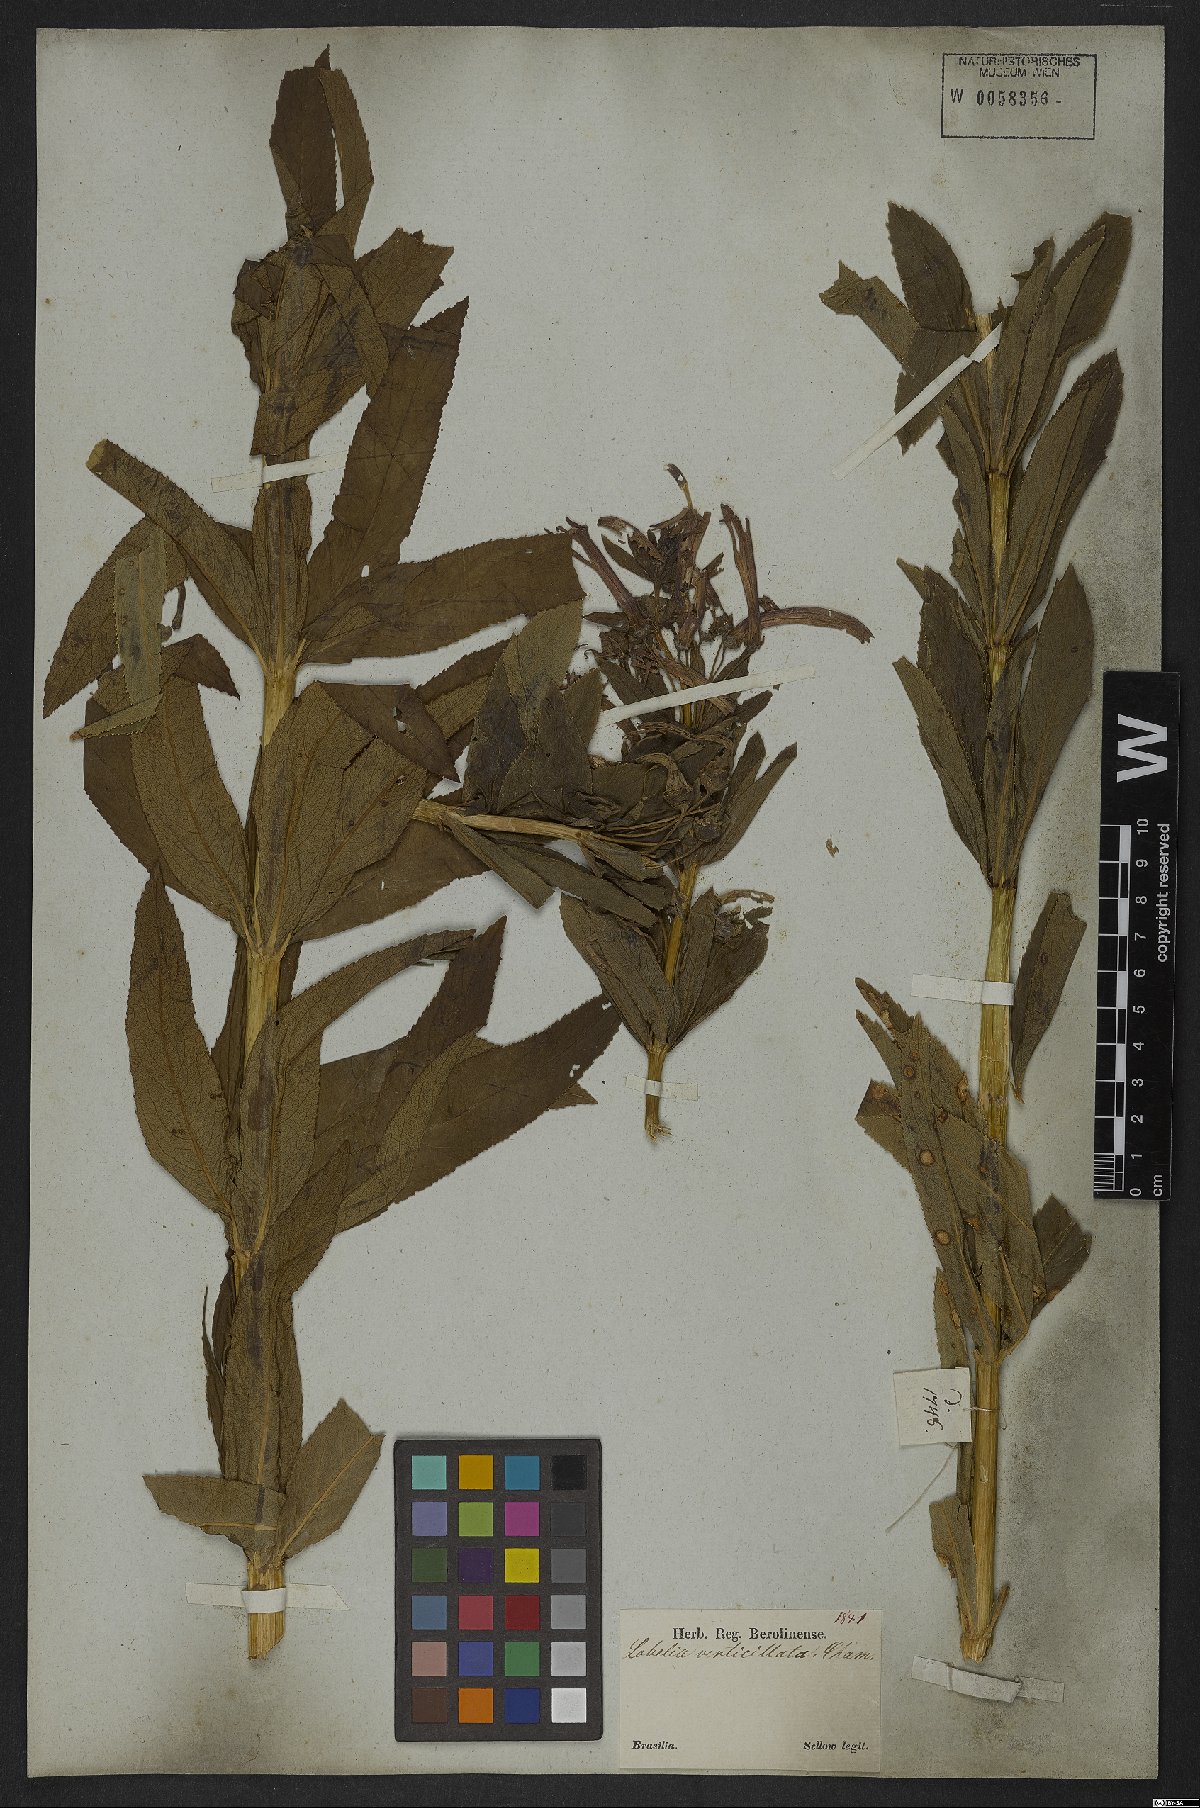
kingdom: Plantae
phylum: Tracheophyta
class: Magnoliopsida
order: Asterales
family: Campanulaceae
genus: Siphocampylus
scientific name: Siphocampylus verticillatus
